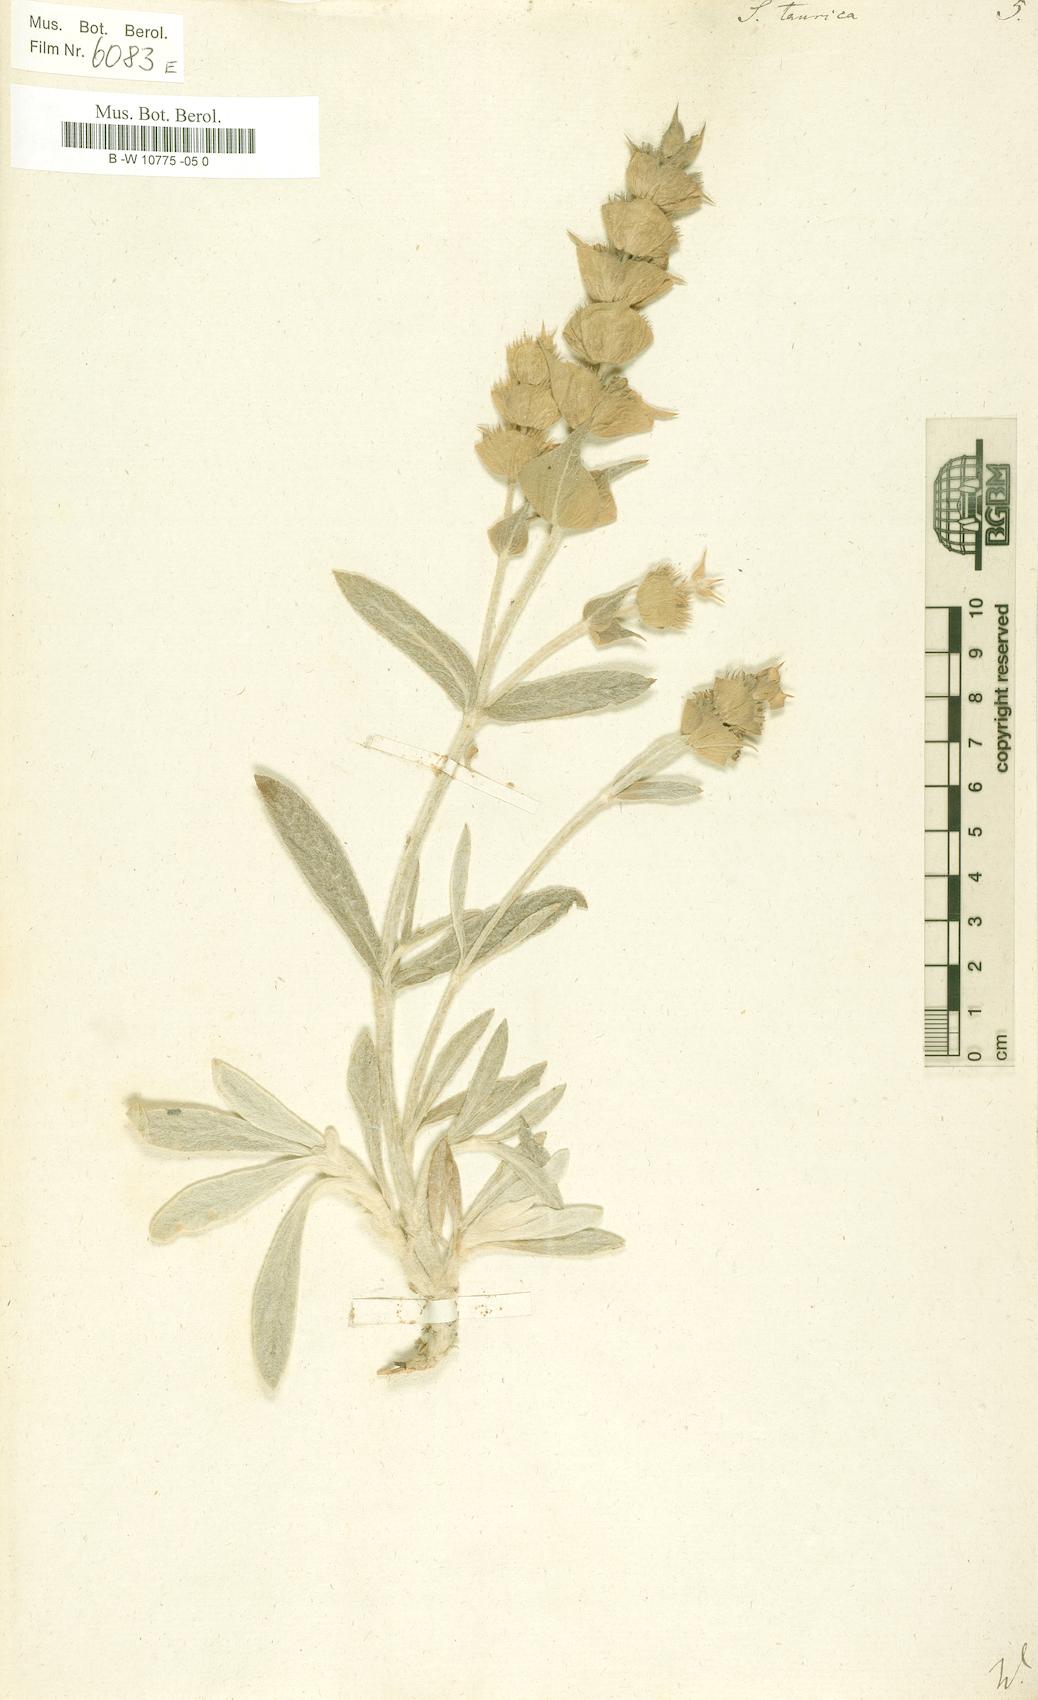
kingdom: Plantae
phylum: Tracheophyta
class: Magnoliopsida
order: Lamiales
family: Lamiaceae
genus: Sideritis
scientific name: Sideritis taurica
